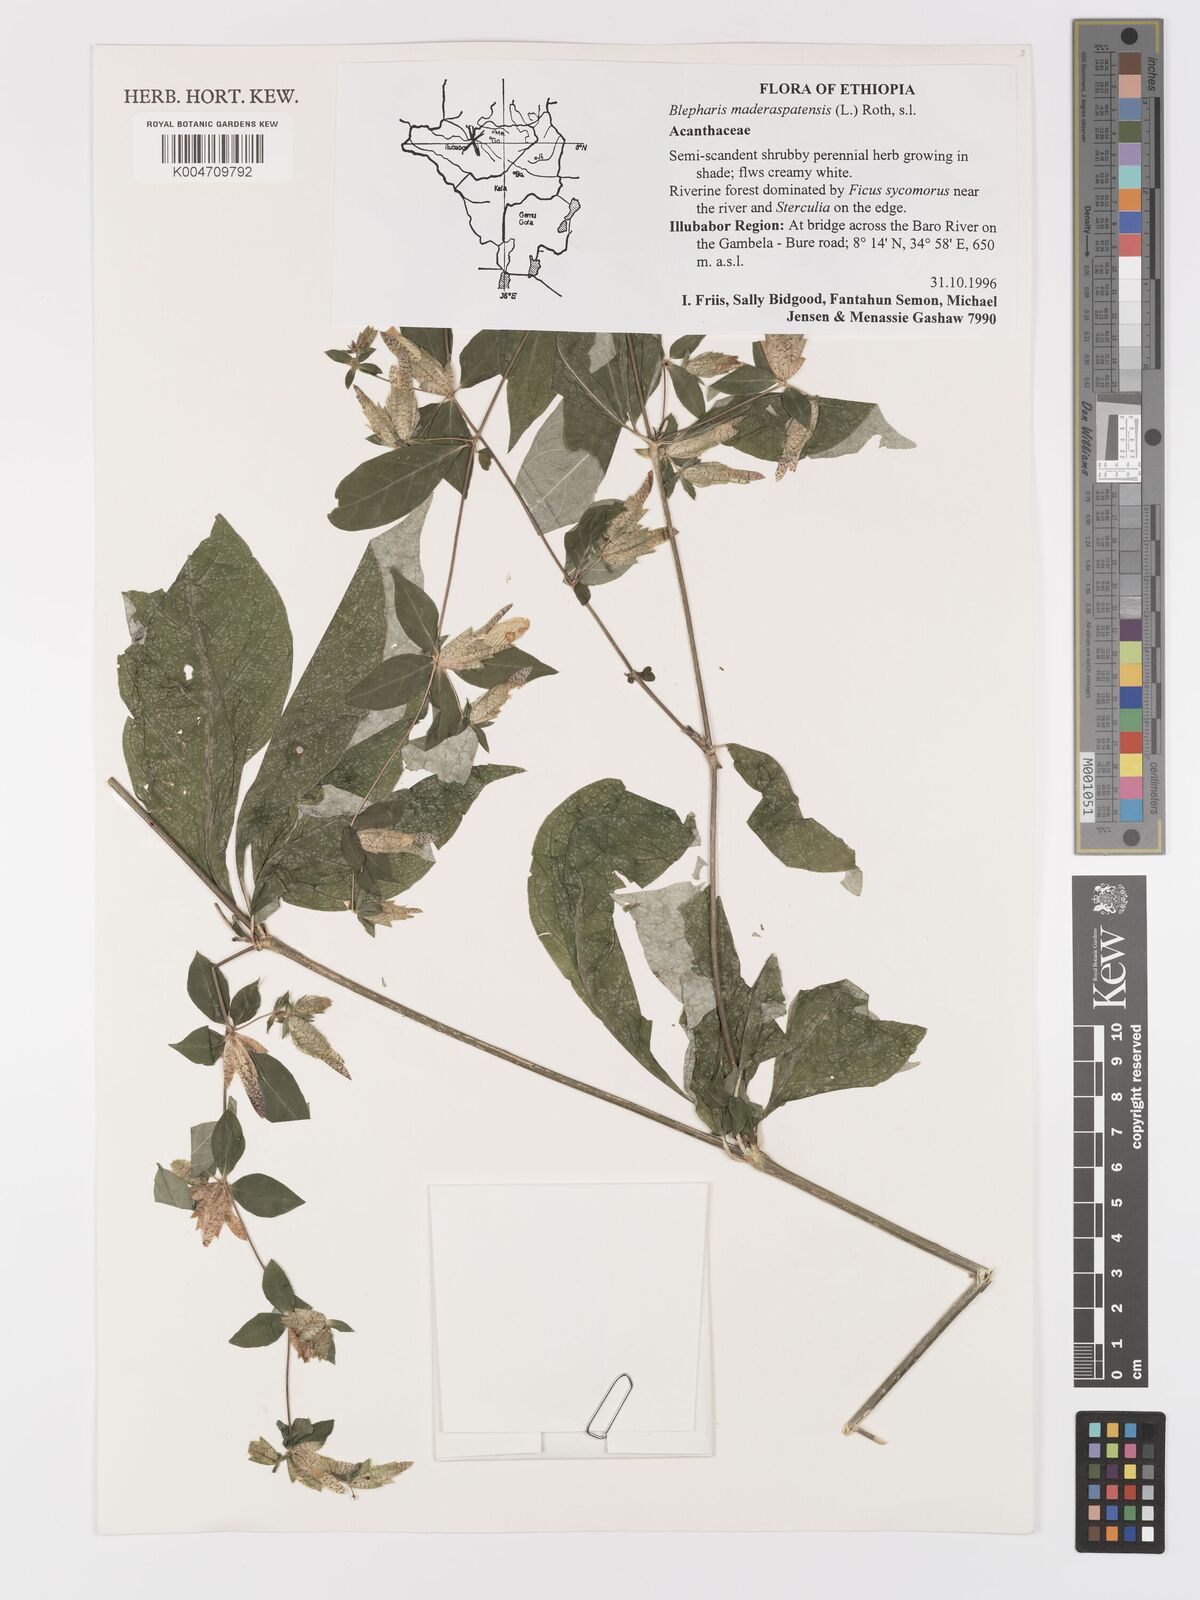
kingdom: Plantae
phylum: Tracheophyta
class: Magnoliopsida
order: Lamiales
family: Acanthaceae
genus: Blepharis
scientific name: Blepharis maderaspatensis
